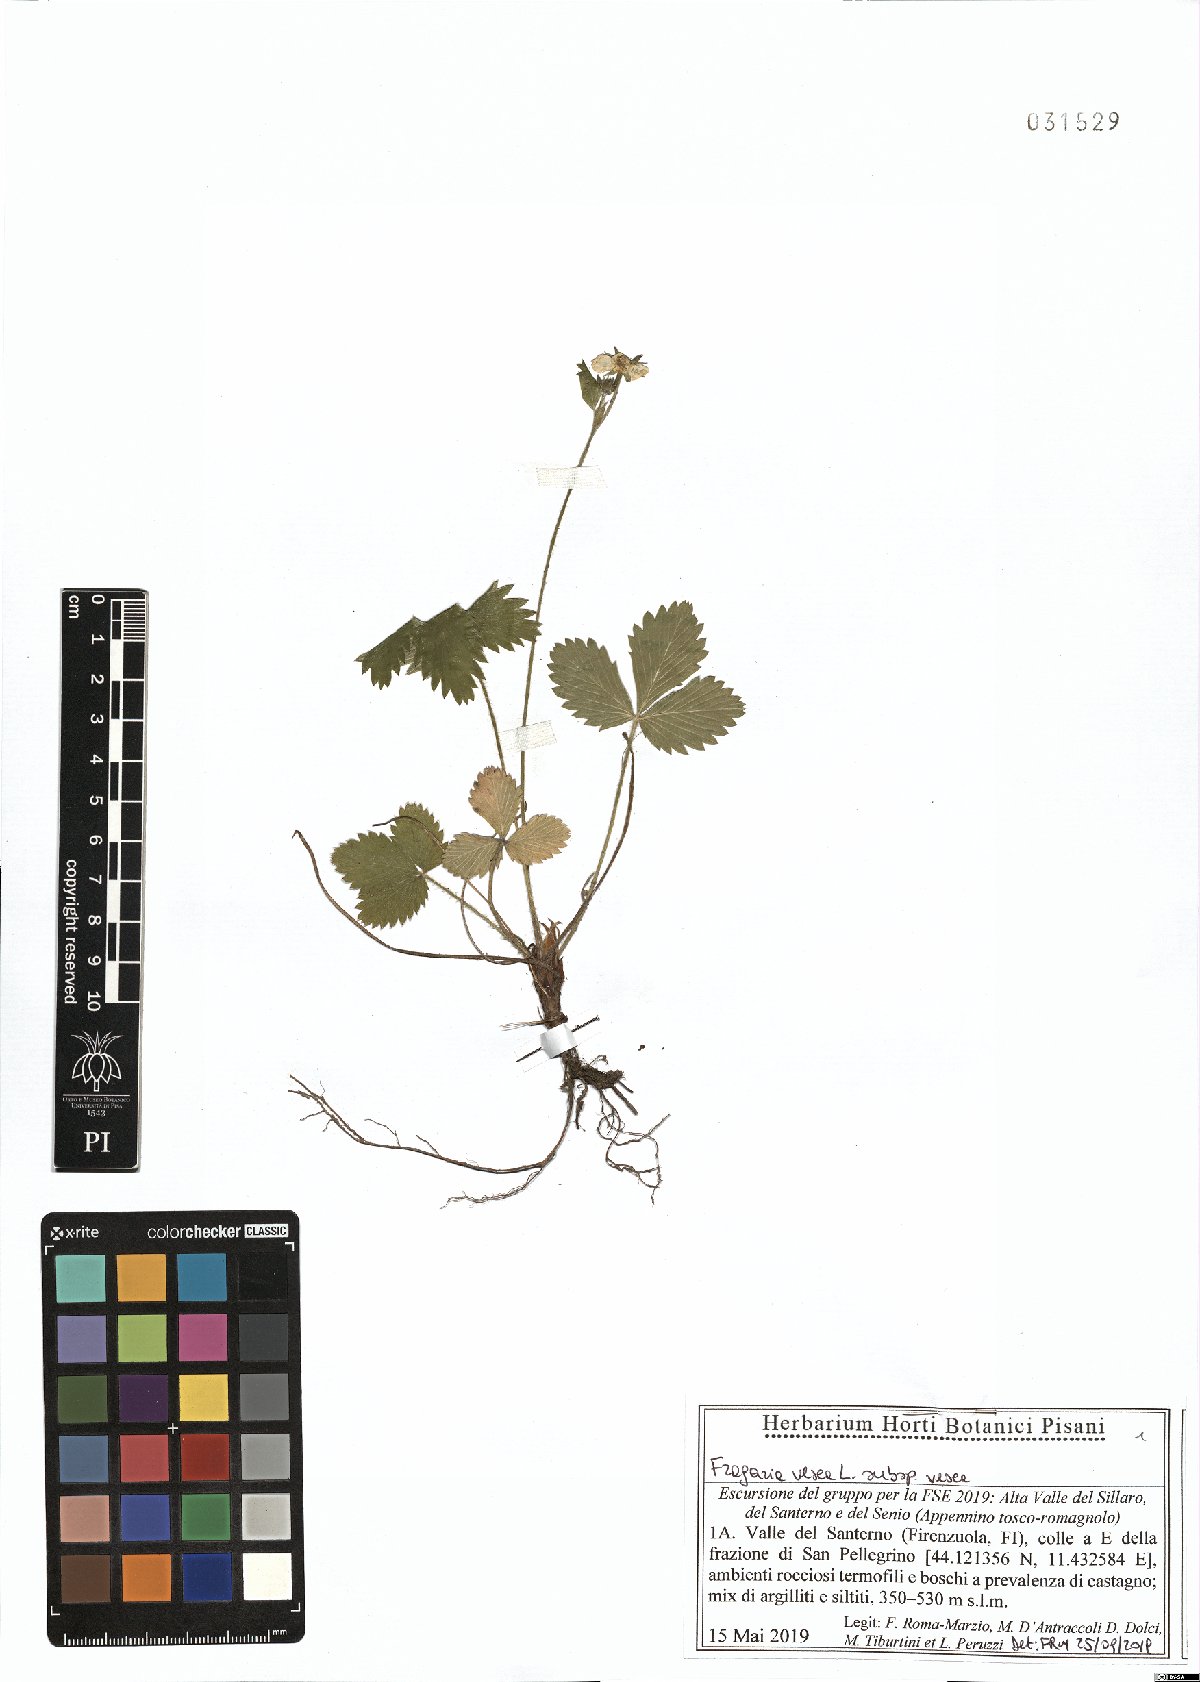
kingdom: Plantae
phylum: Tracheophyta
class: Magnoliopsida
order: Rosales
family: Rosaceae
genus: Fragaria
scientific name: Fragaria vesca
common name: Wild strawberry
